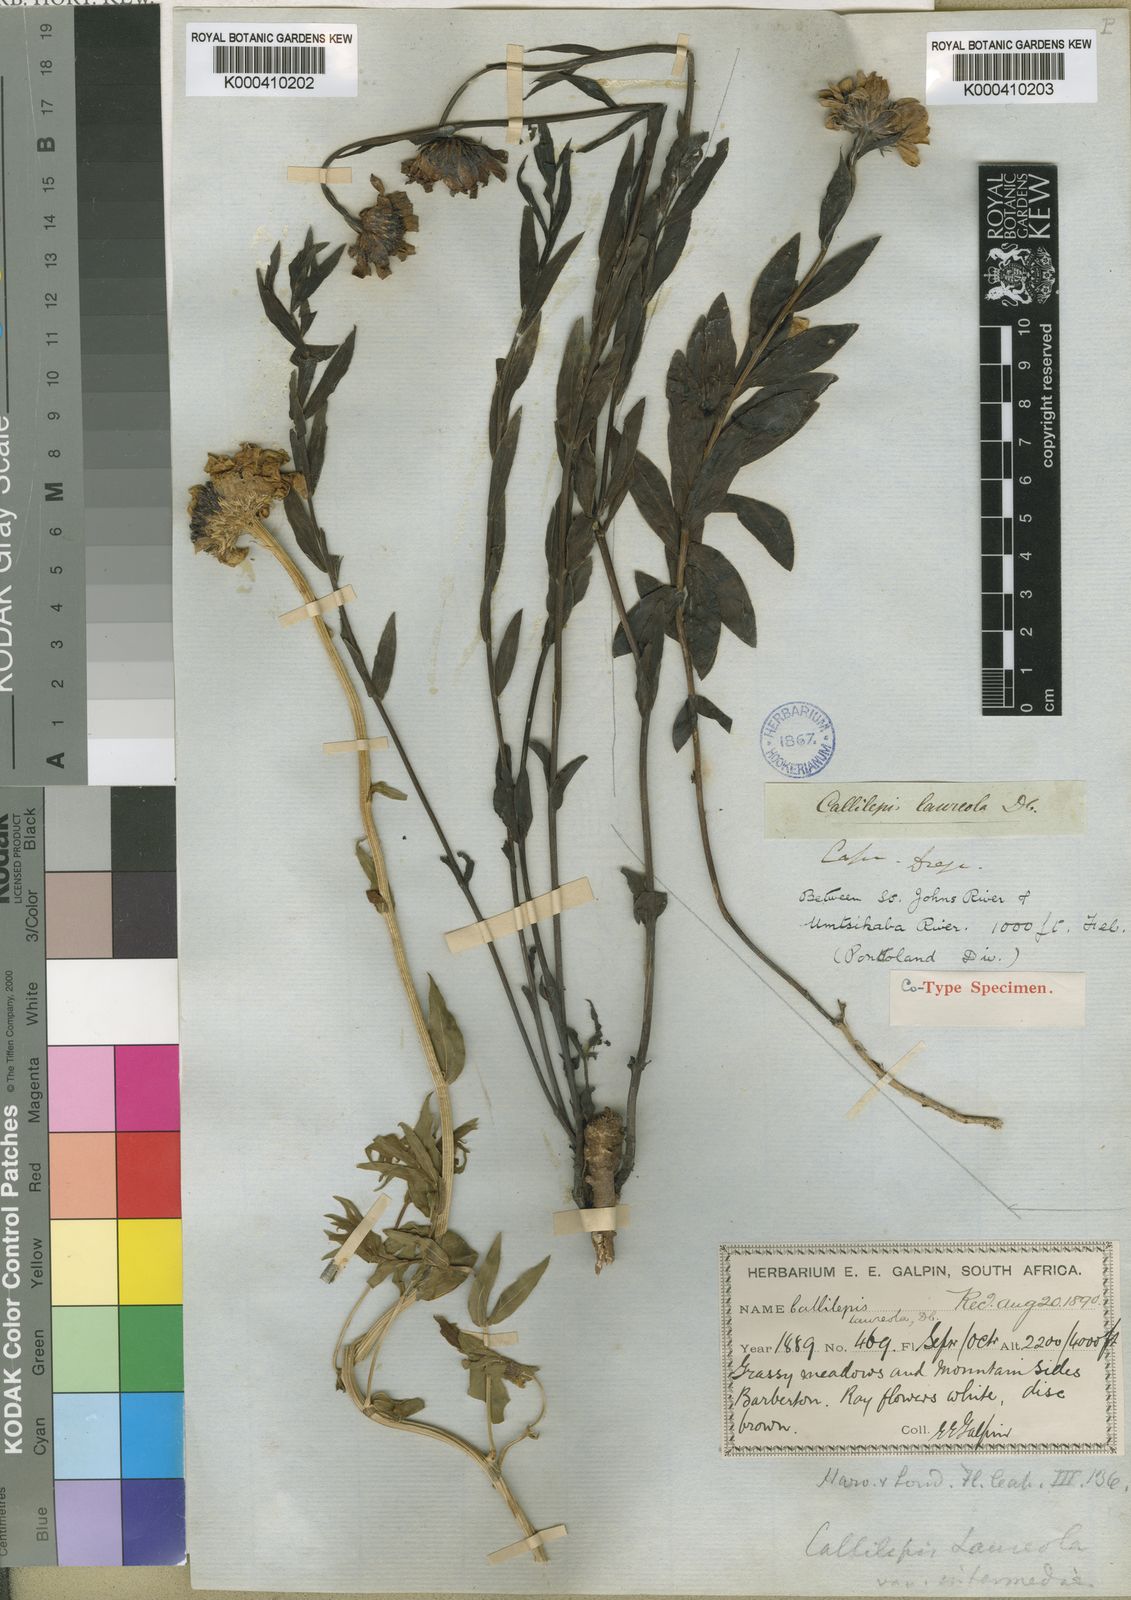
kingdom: Plantae
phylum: Tracheophyta
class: Magnoliopsida
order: Asterales
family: Asteraceae
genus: Callilepis
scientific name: Callilepis laureola
